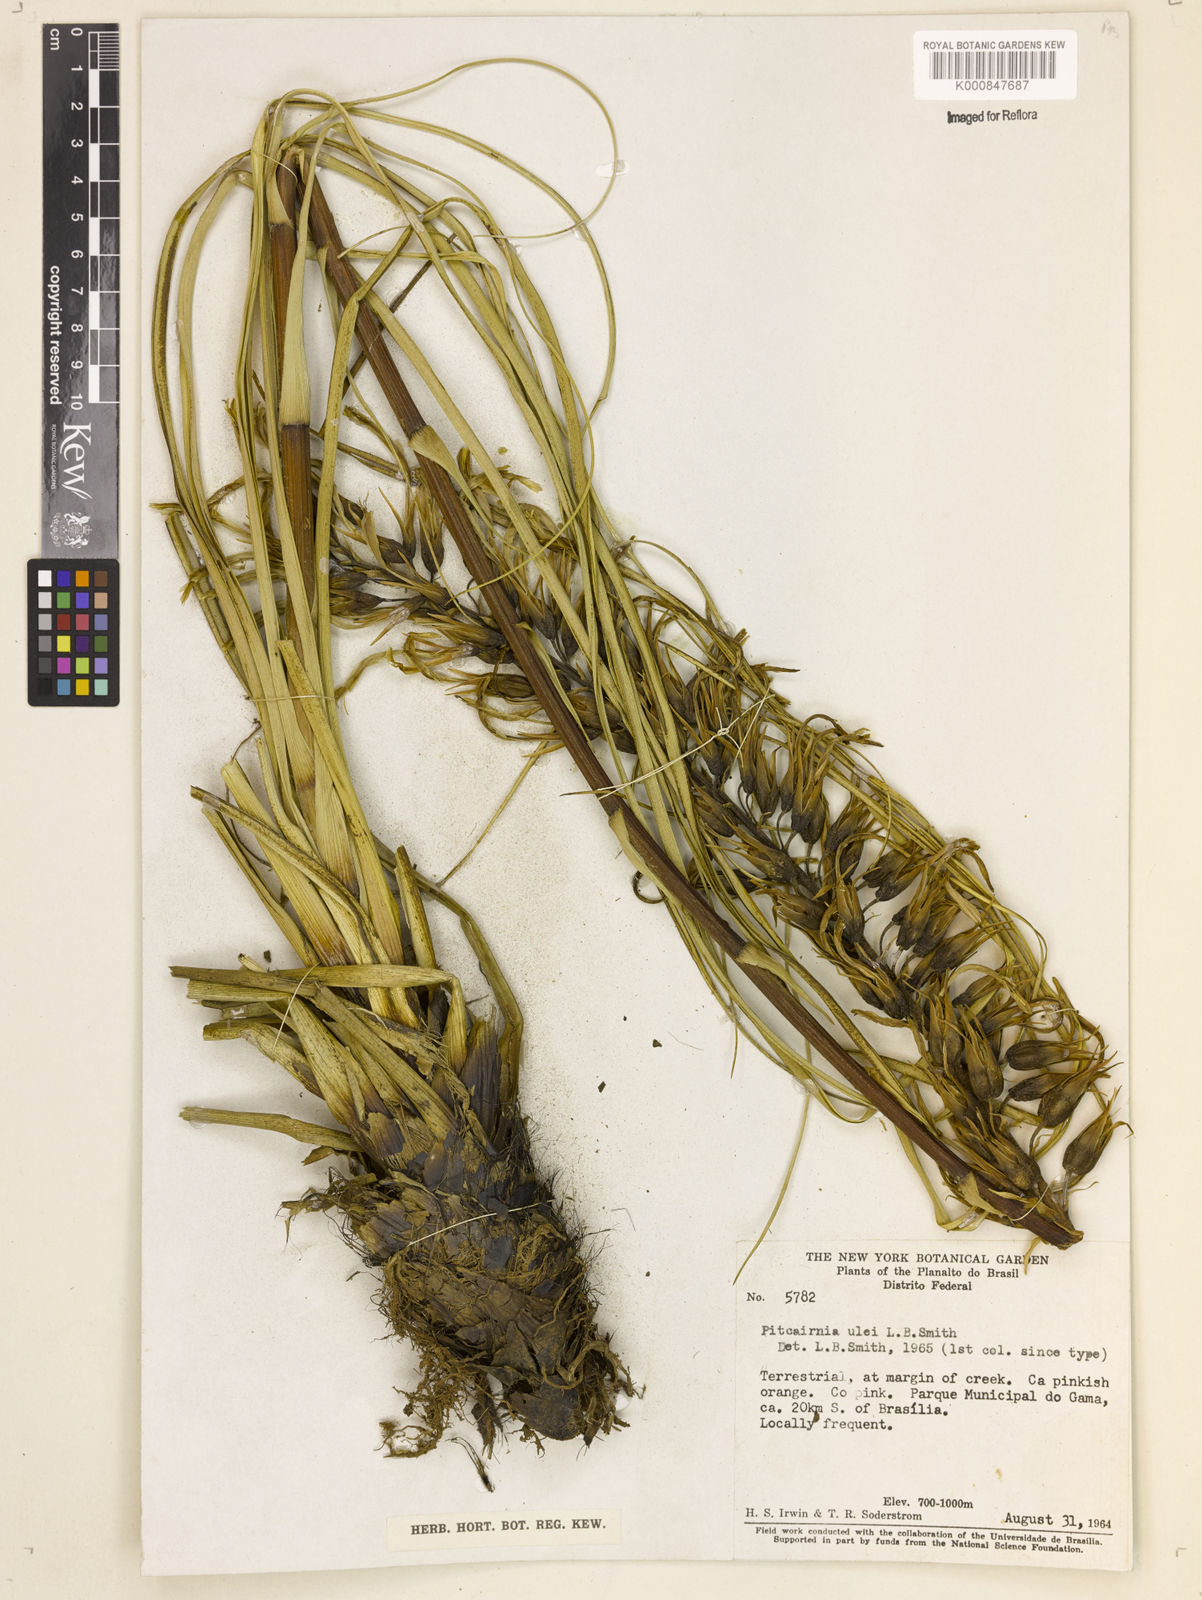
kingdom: Plantae
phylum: Tracheophyta
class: Liliopsida
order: Poales
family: Bromeliaceae
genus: Pitcairnia
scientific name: Pitcairnia ulei
